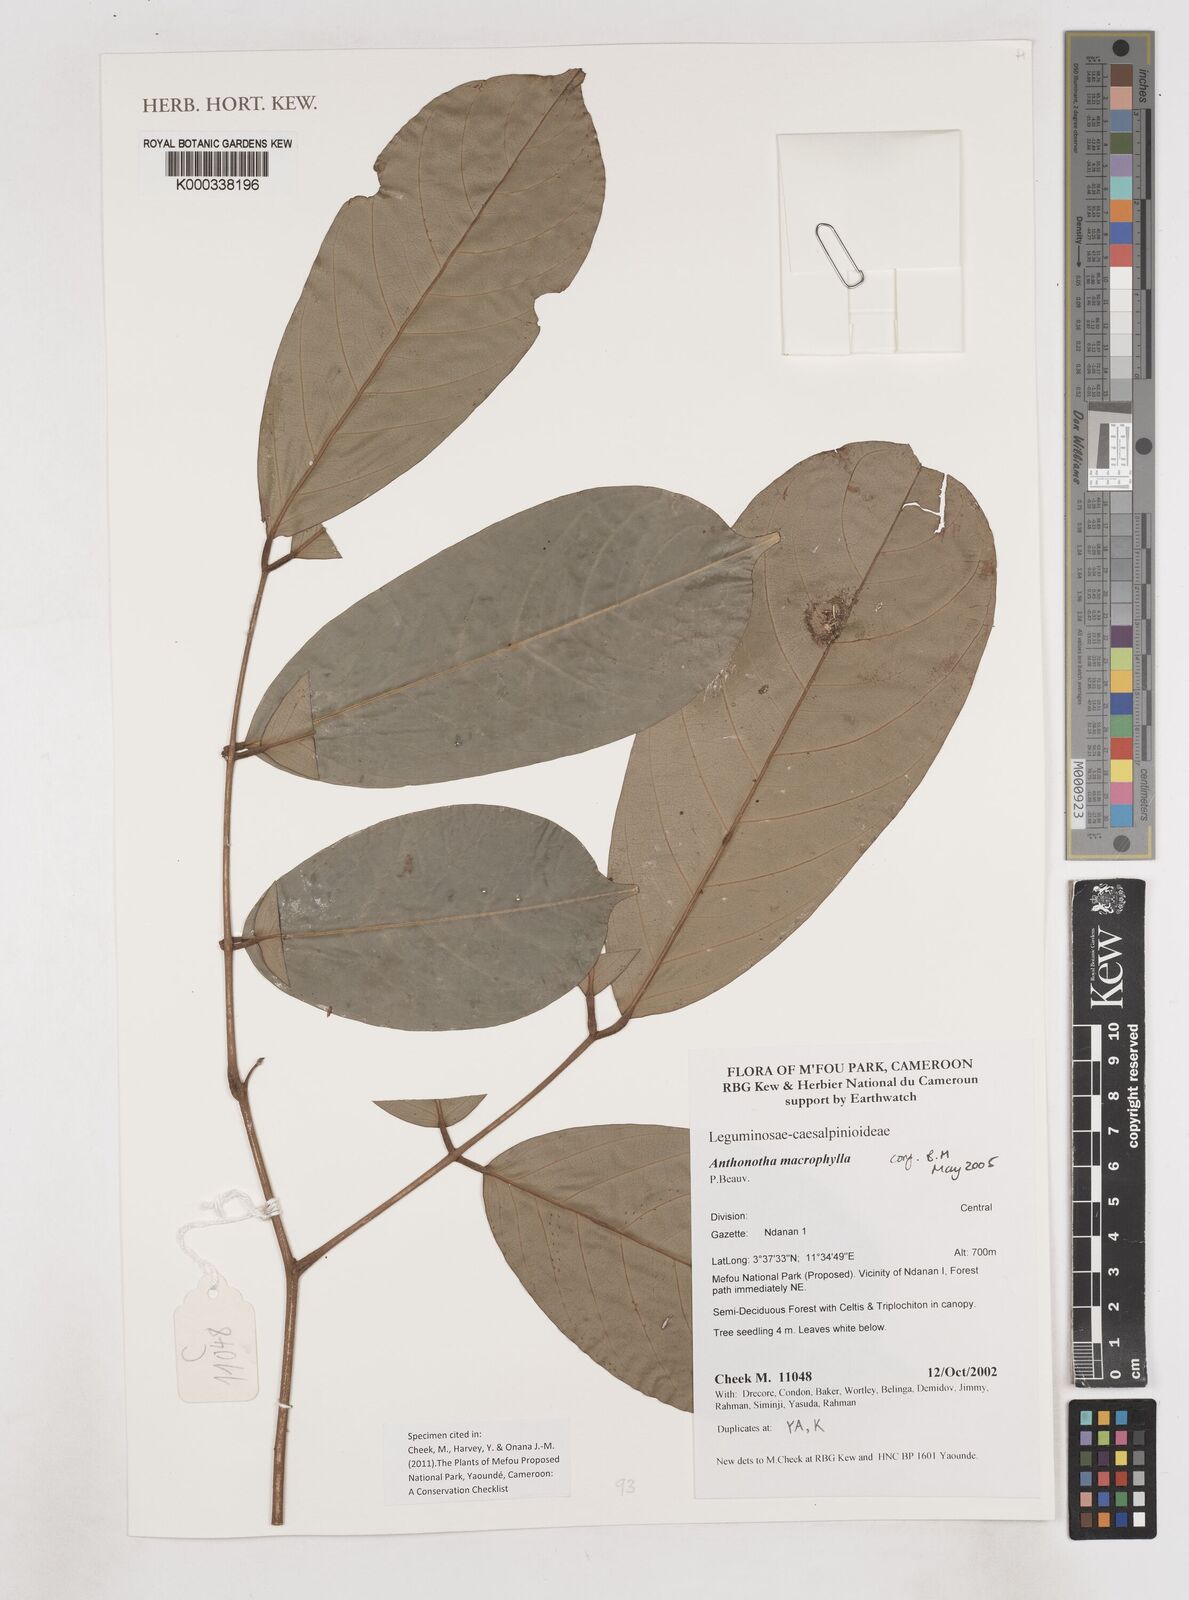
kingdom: Plantae
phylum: Tracheophyta
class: Magnoliopsida
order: Fabales
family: Fabaceae
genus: Anthonotha
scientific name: Anthonotha macrophylla
